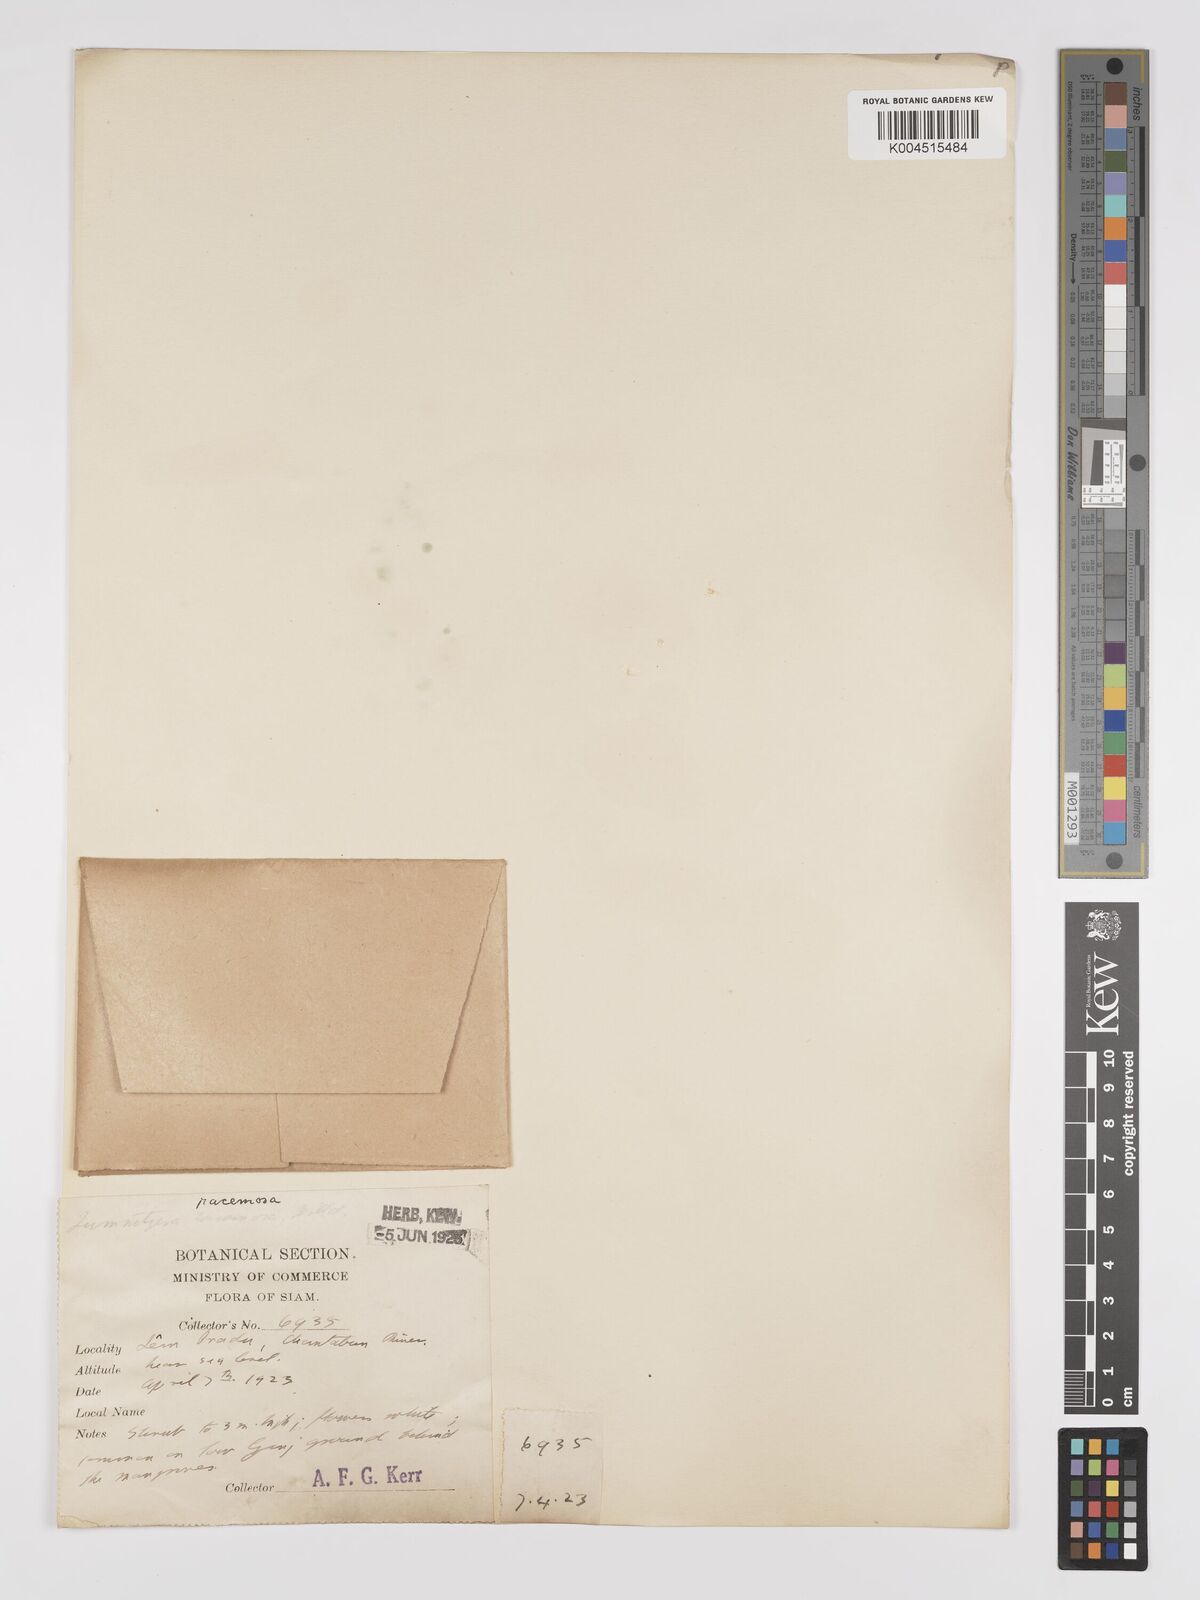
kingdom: Plantae
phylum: Tracheophyta
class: Magnoliopsida
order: Myrtales
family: Combretaceae
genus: Lumnitzera
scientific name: Lumnitzera racemosa
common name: White-flowered black mangrove
